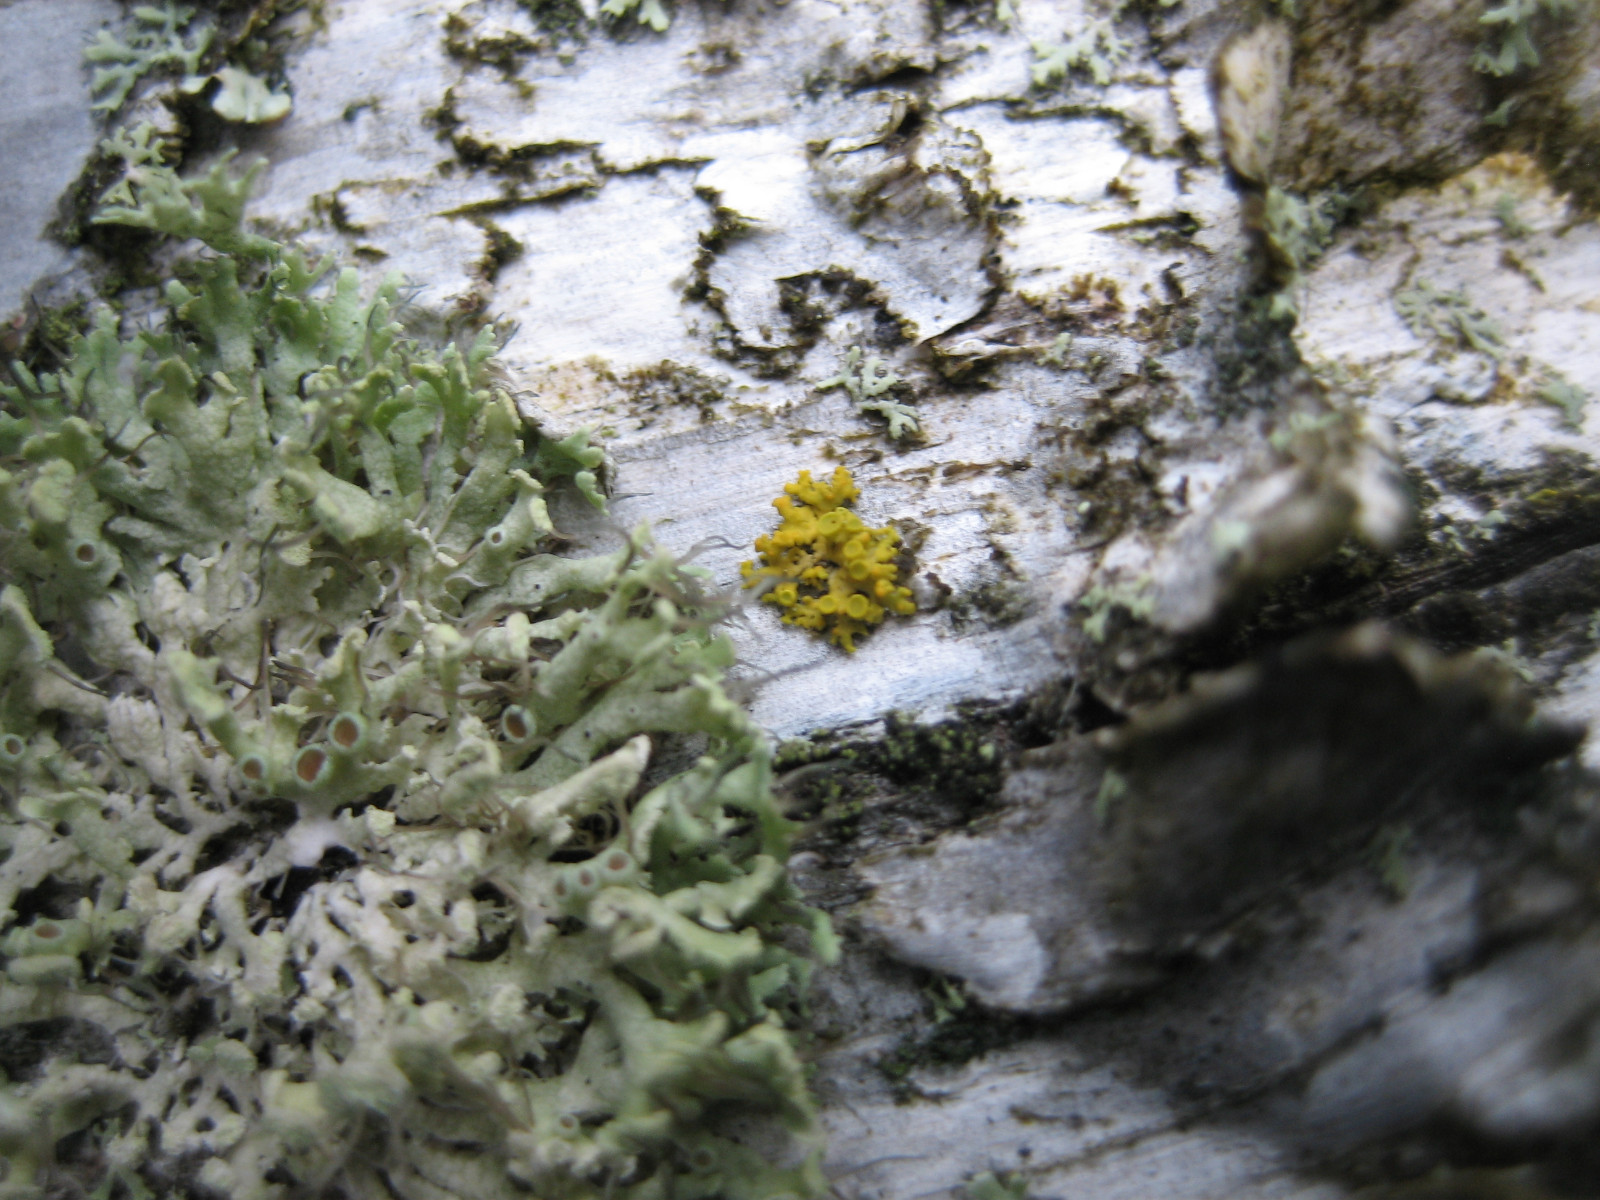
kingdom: Fungi
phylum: Ascomycota
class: Lecanoromycetes
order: Teloschistales
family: Teloschistaceae
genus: Polycauliona
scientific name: Polycauliona polycarpa
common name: mangefrugtet orangelav
